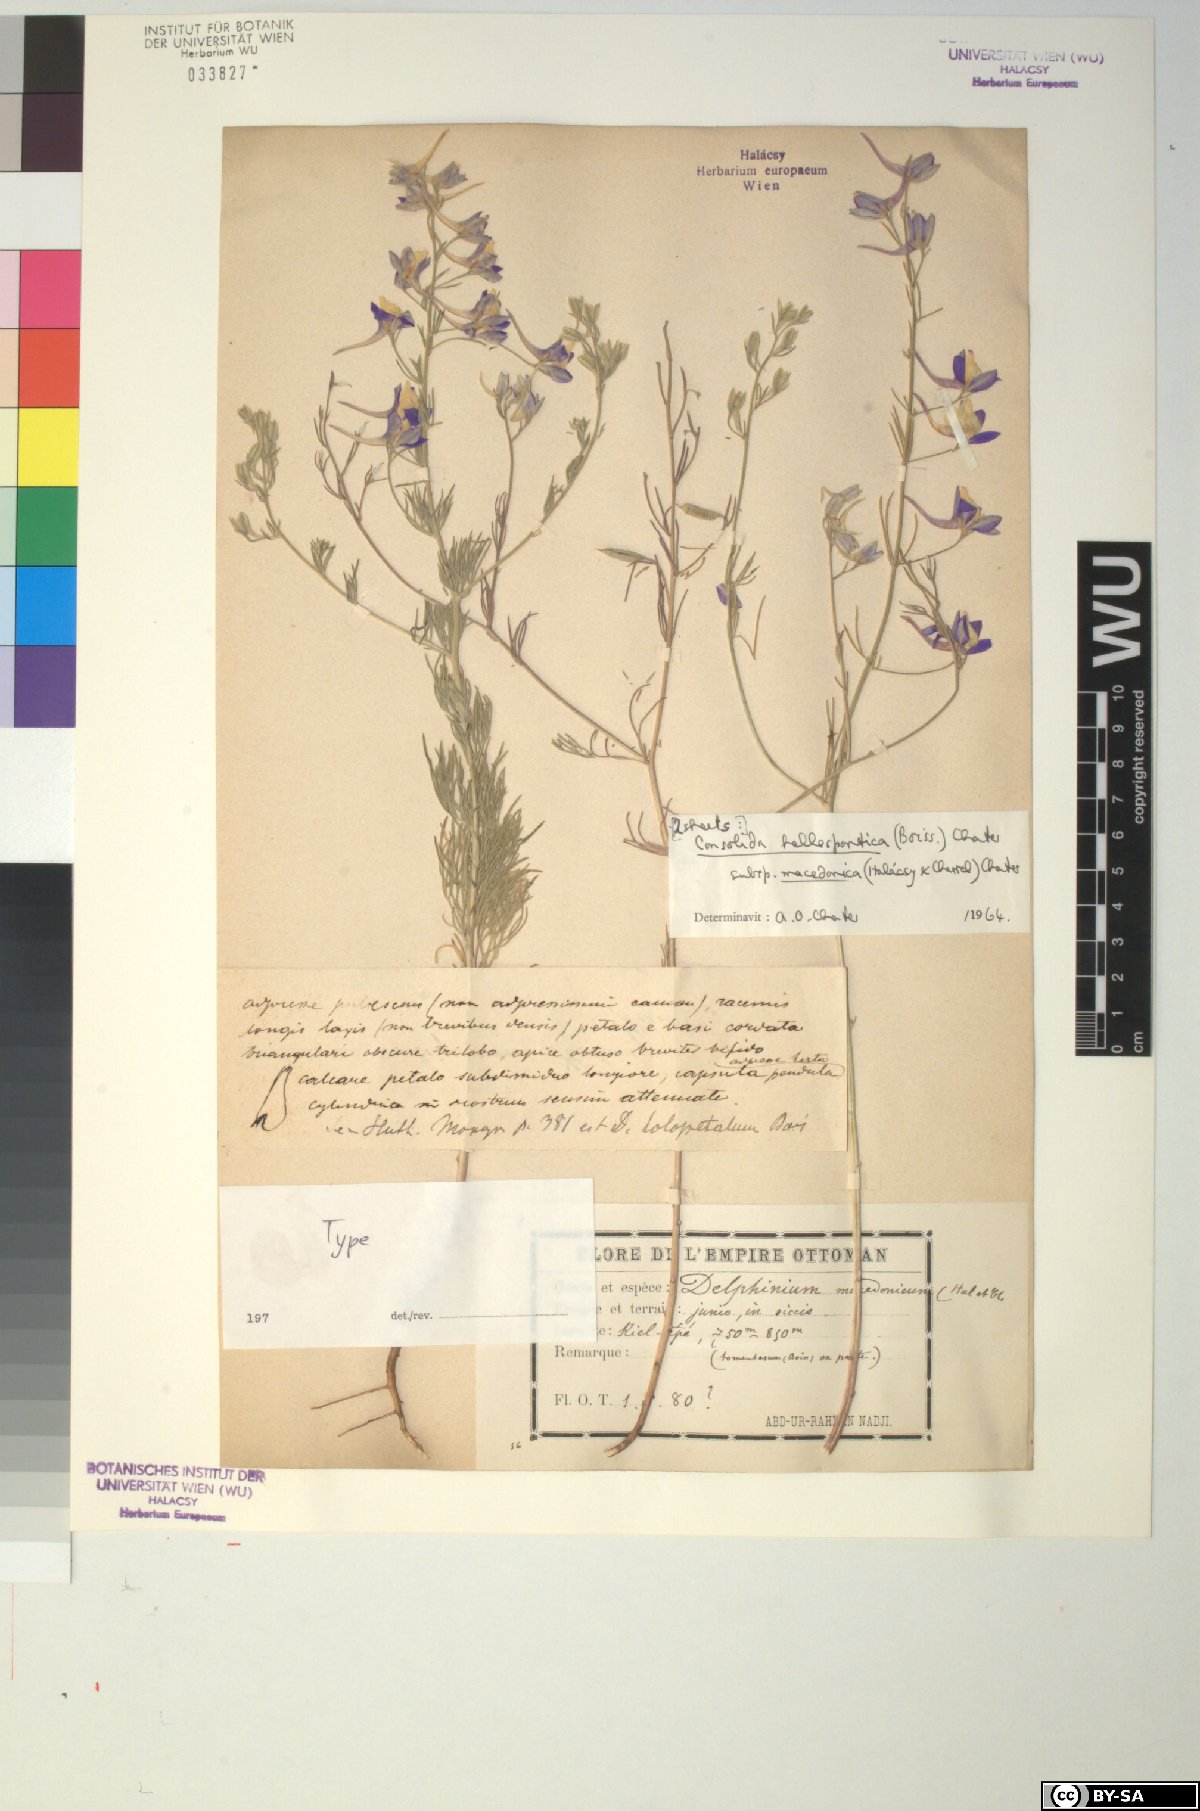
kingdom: Plantae
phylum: Tracheophyta
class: Magnoliopsida
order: Ranunculales
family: Ranunculaceae
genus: Delphinium
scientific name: Delphinium hellesponticum
